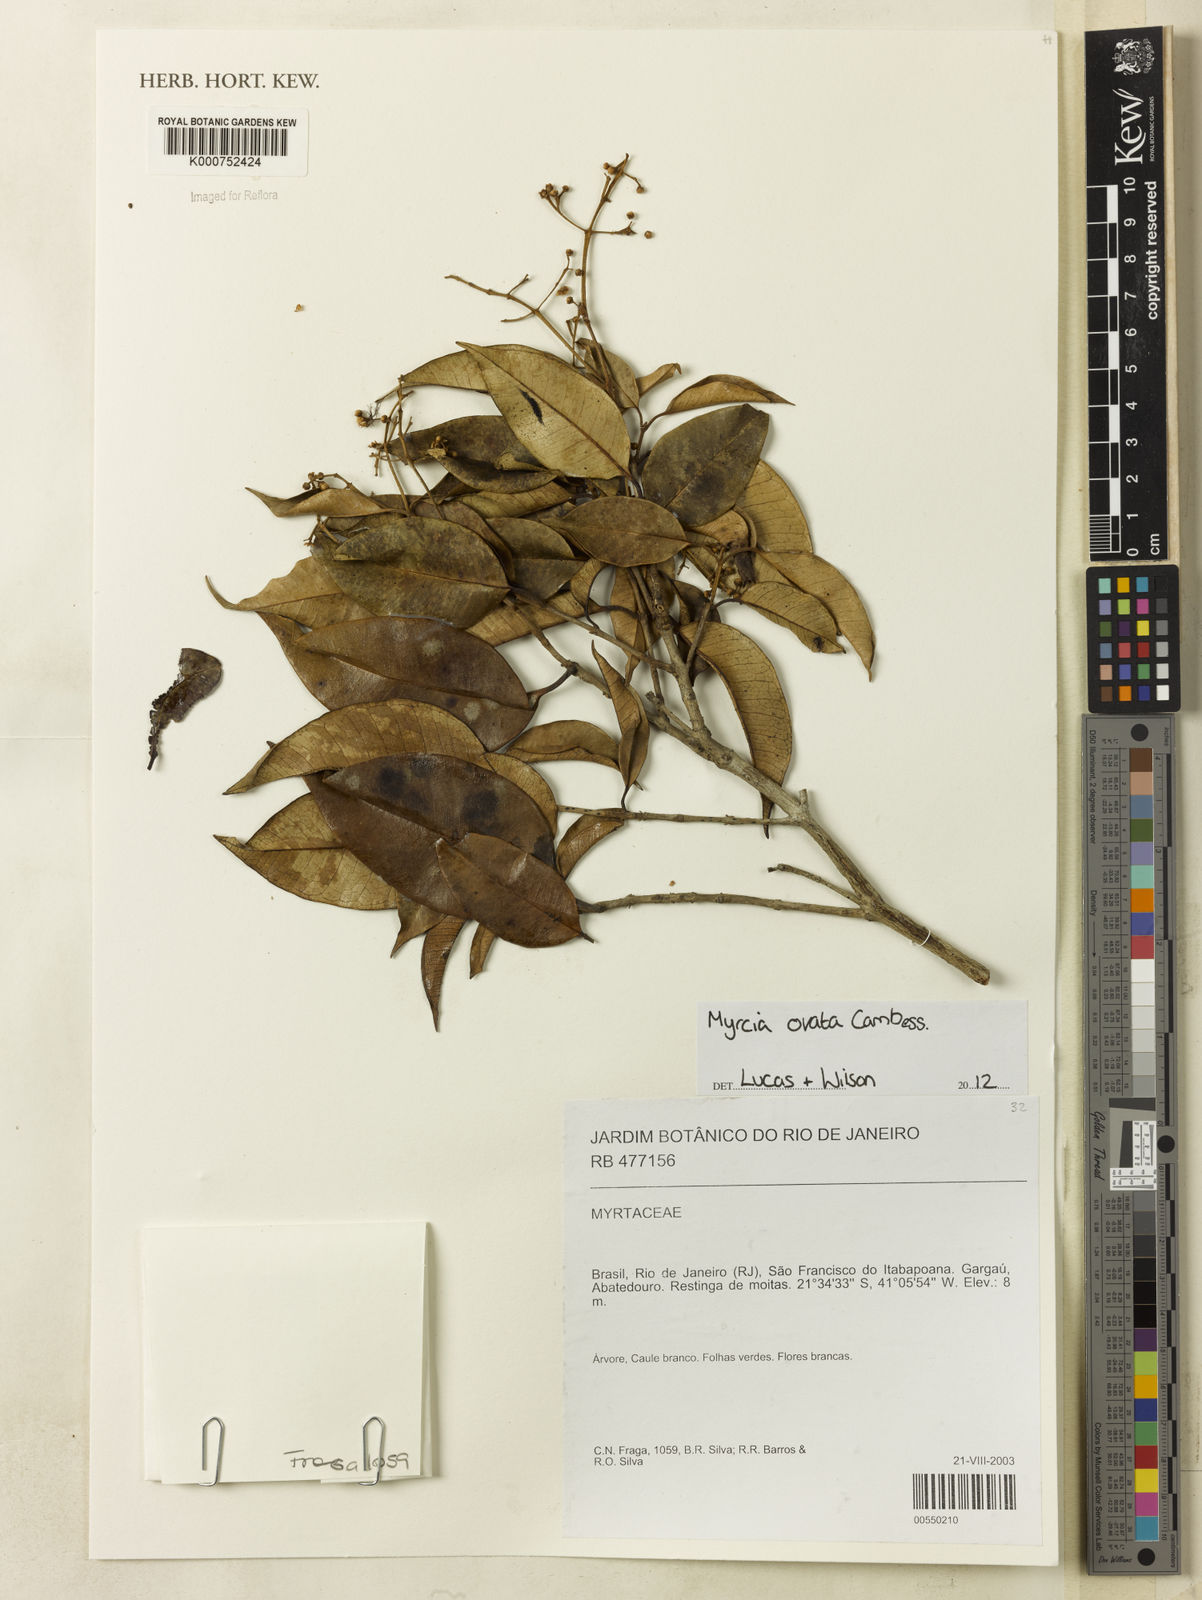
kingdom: Plantae
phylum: Tracheophyta
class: Magnoliopsida
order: Myrtales
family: Myrtaceae
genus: Myrcia
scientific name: Myrcia ovata
